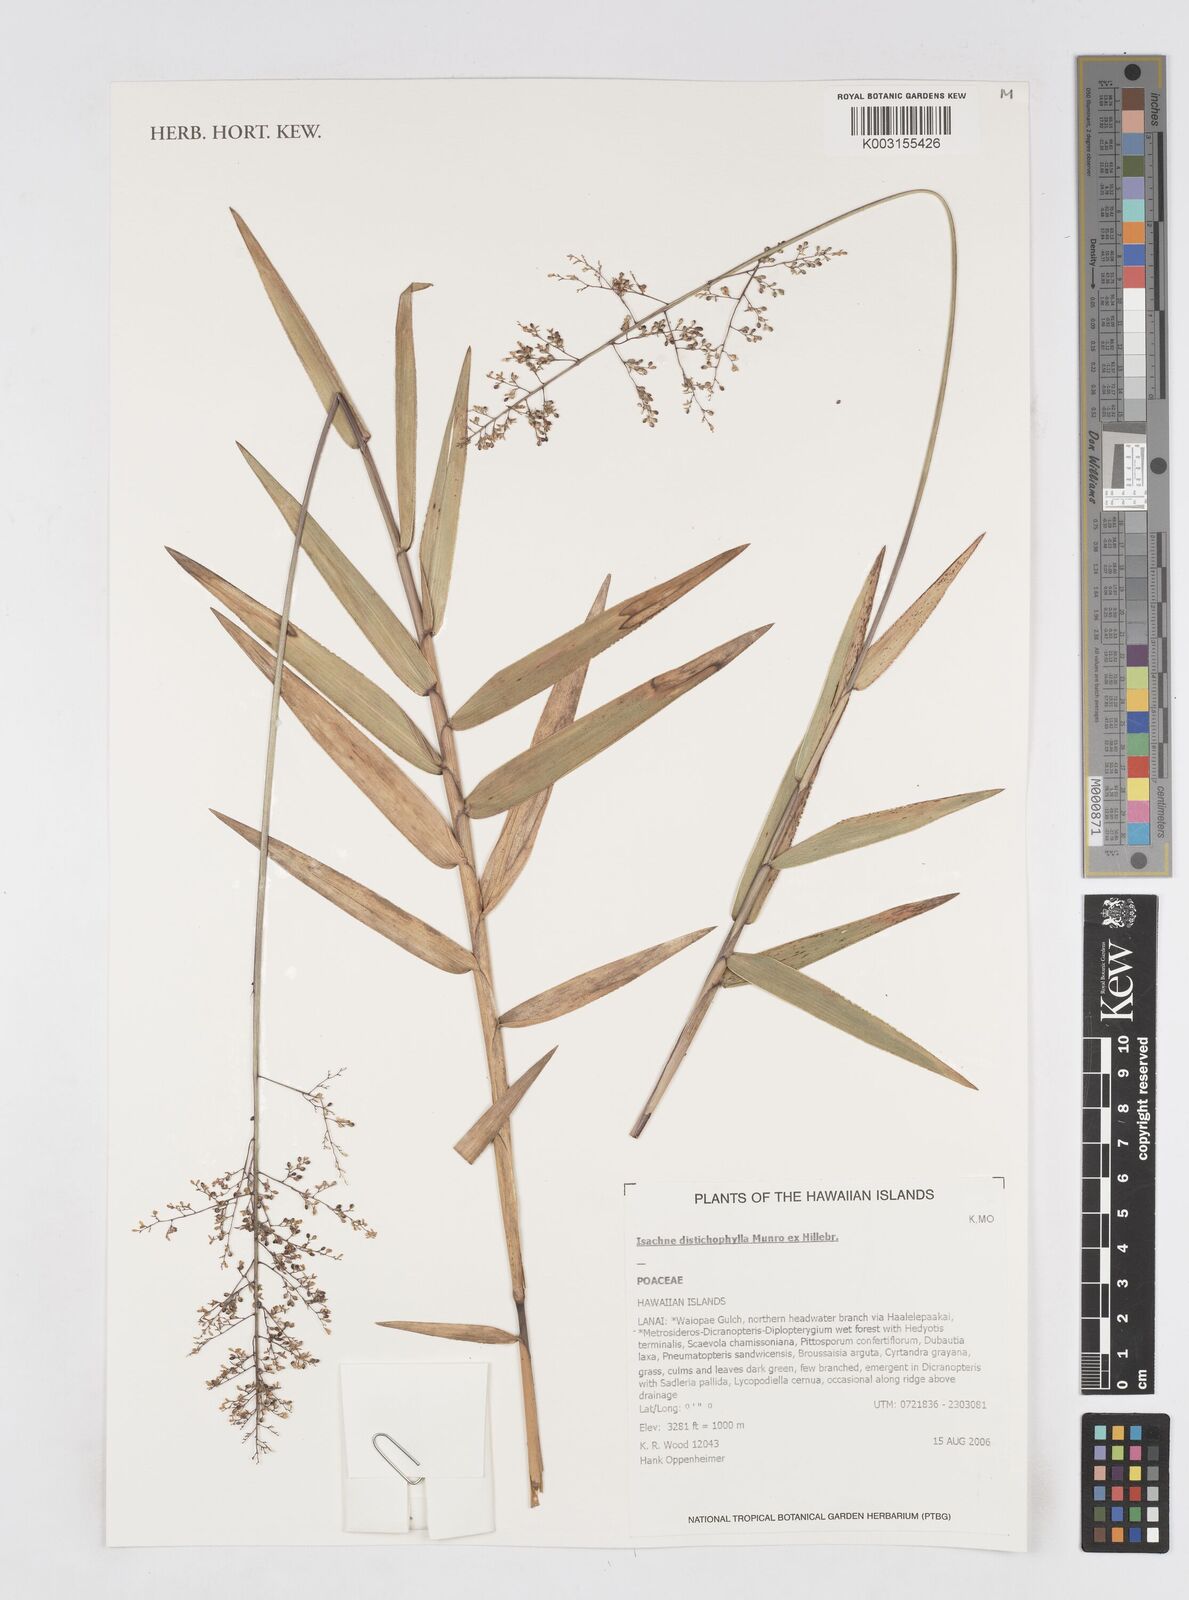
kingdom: Plantae
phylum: Tracheophyta
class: Liliopsida
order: Poales
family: Poaceae
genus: Isachne
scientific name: Isachne distichophylla
